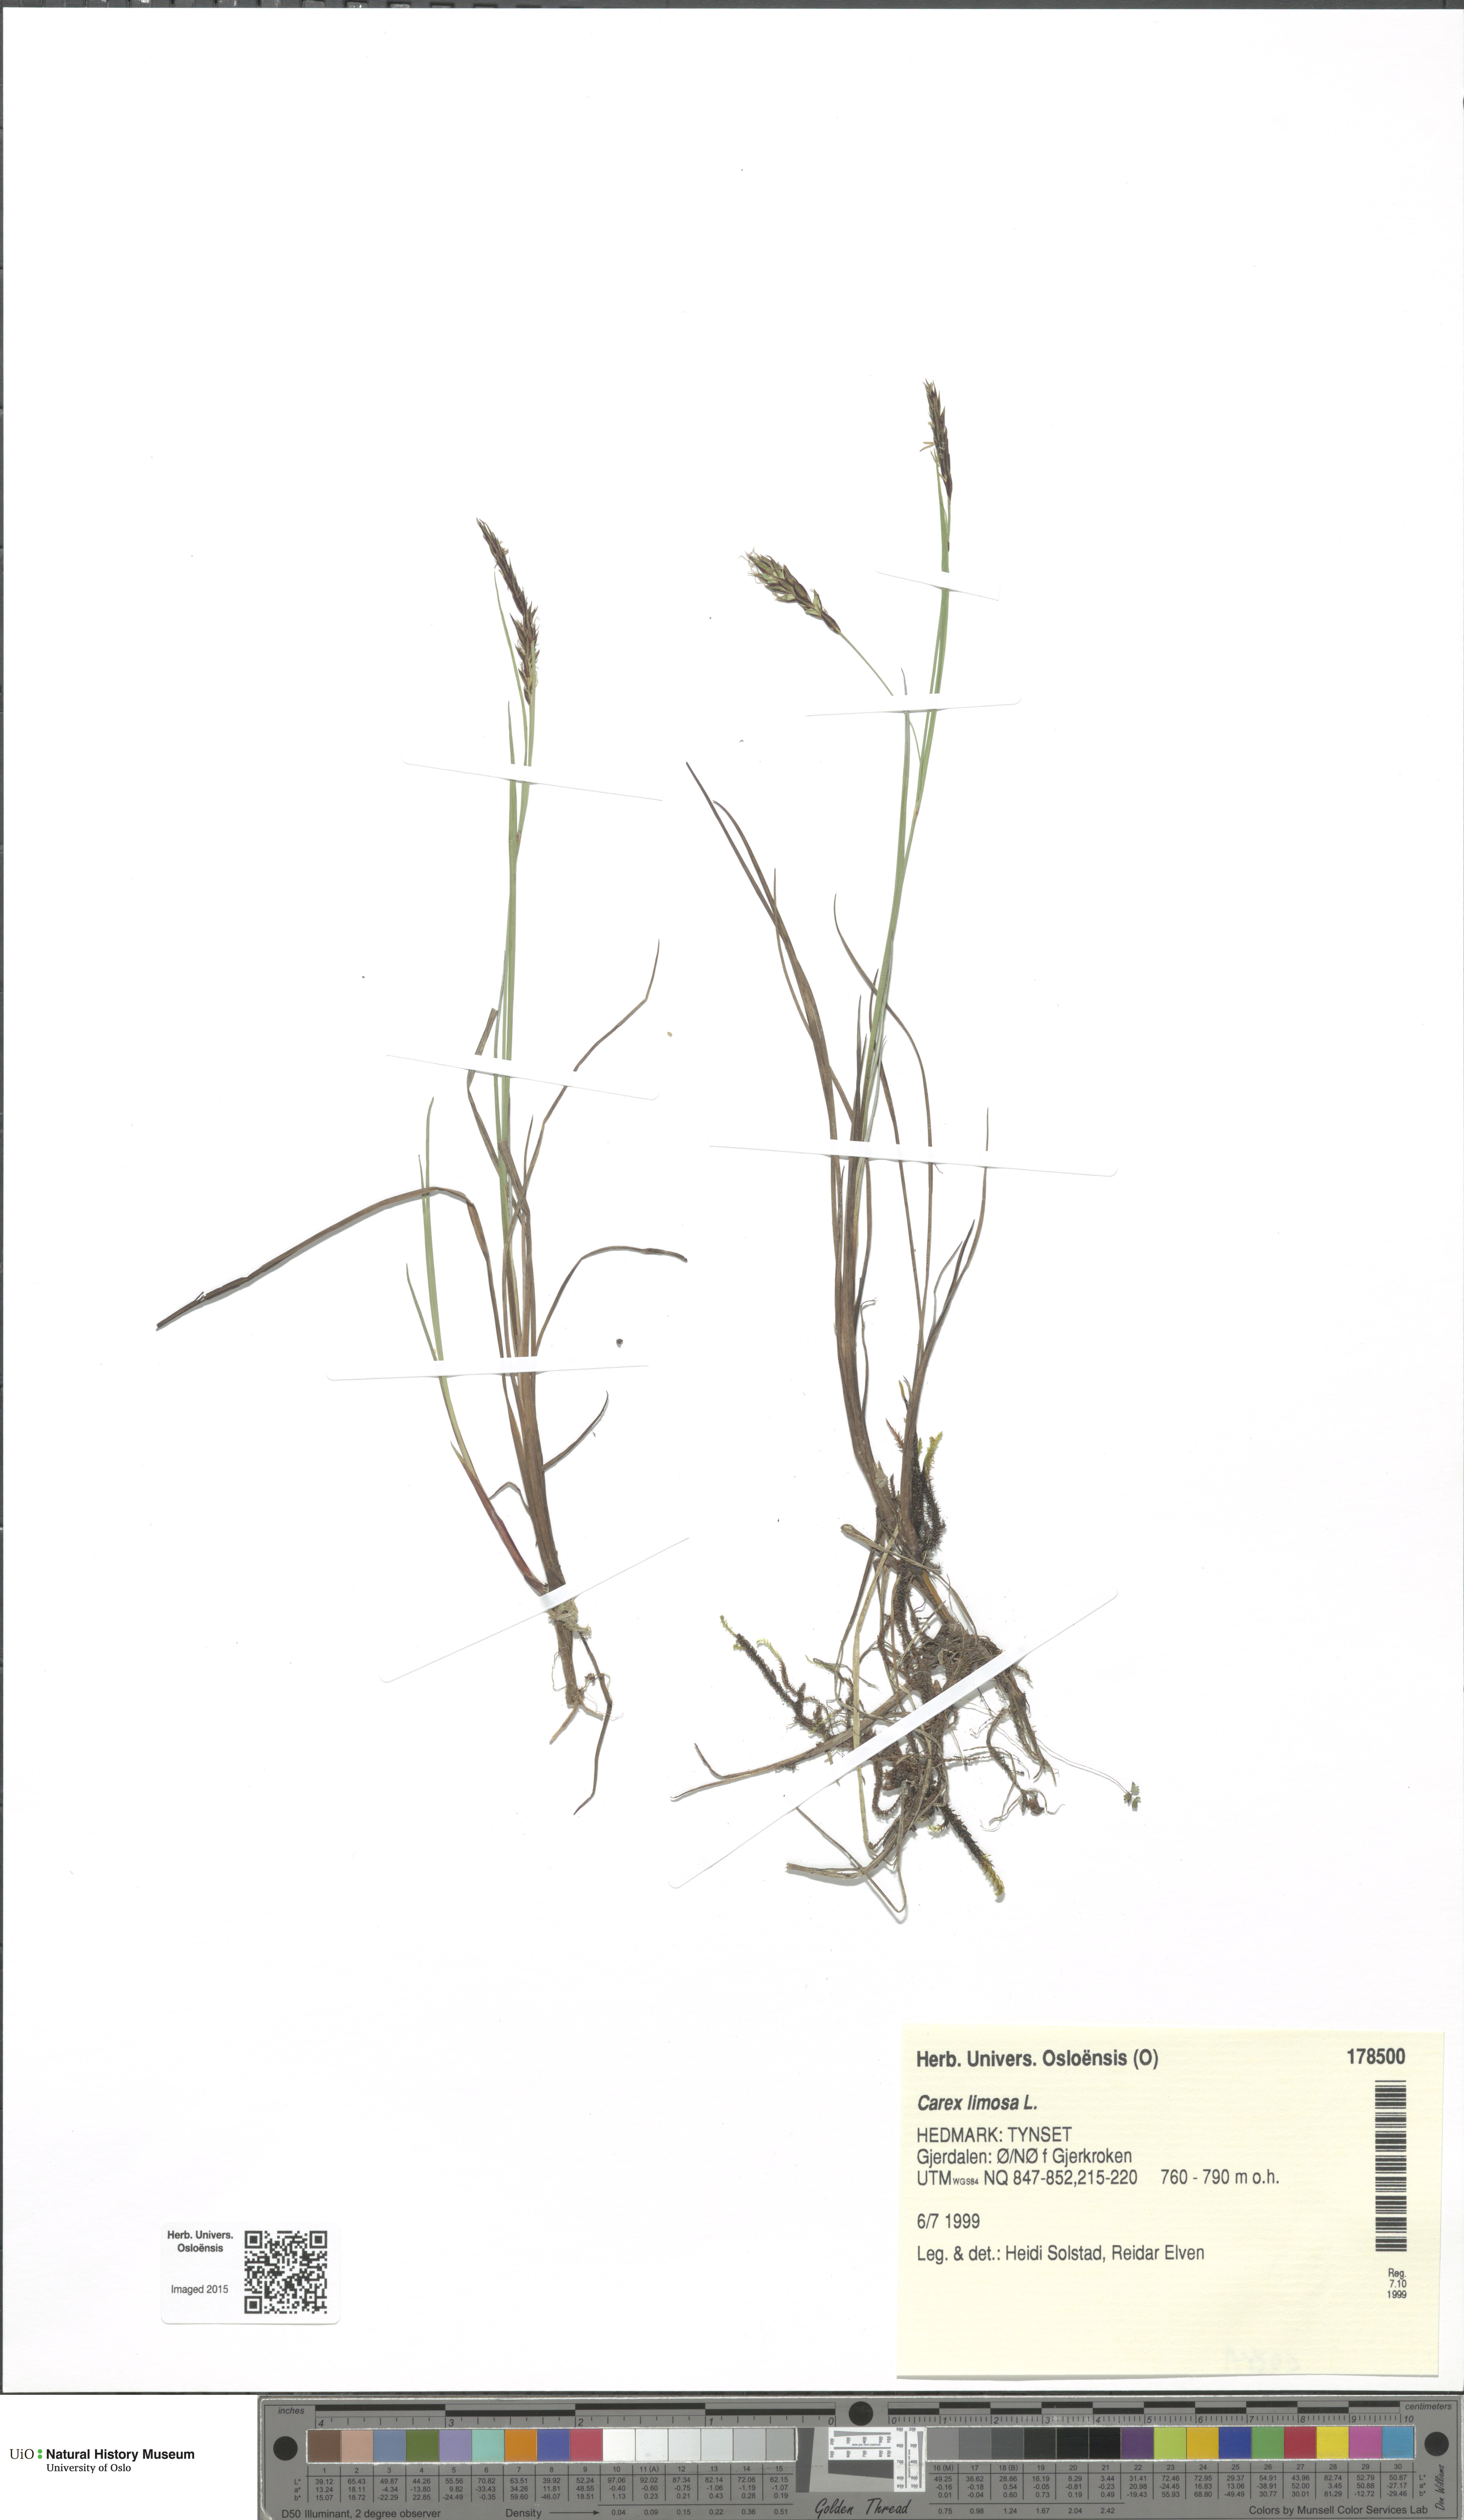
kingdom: Plantae
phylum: Tracheophyta
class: Liliopsida
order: Poales
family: Cyperaceae
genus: Carex
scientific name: Carex limosa
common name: Bog sedge
